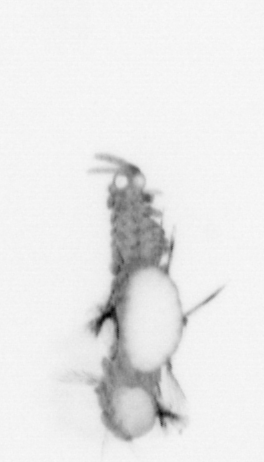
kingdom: Animalia
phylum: Annelida
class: Polychaeta
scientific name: Polychaeta
